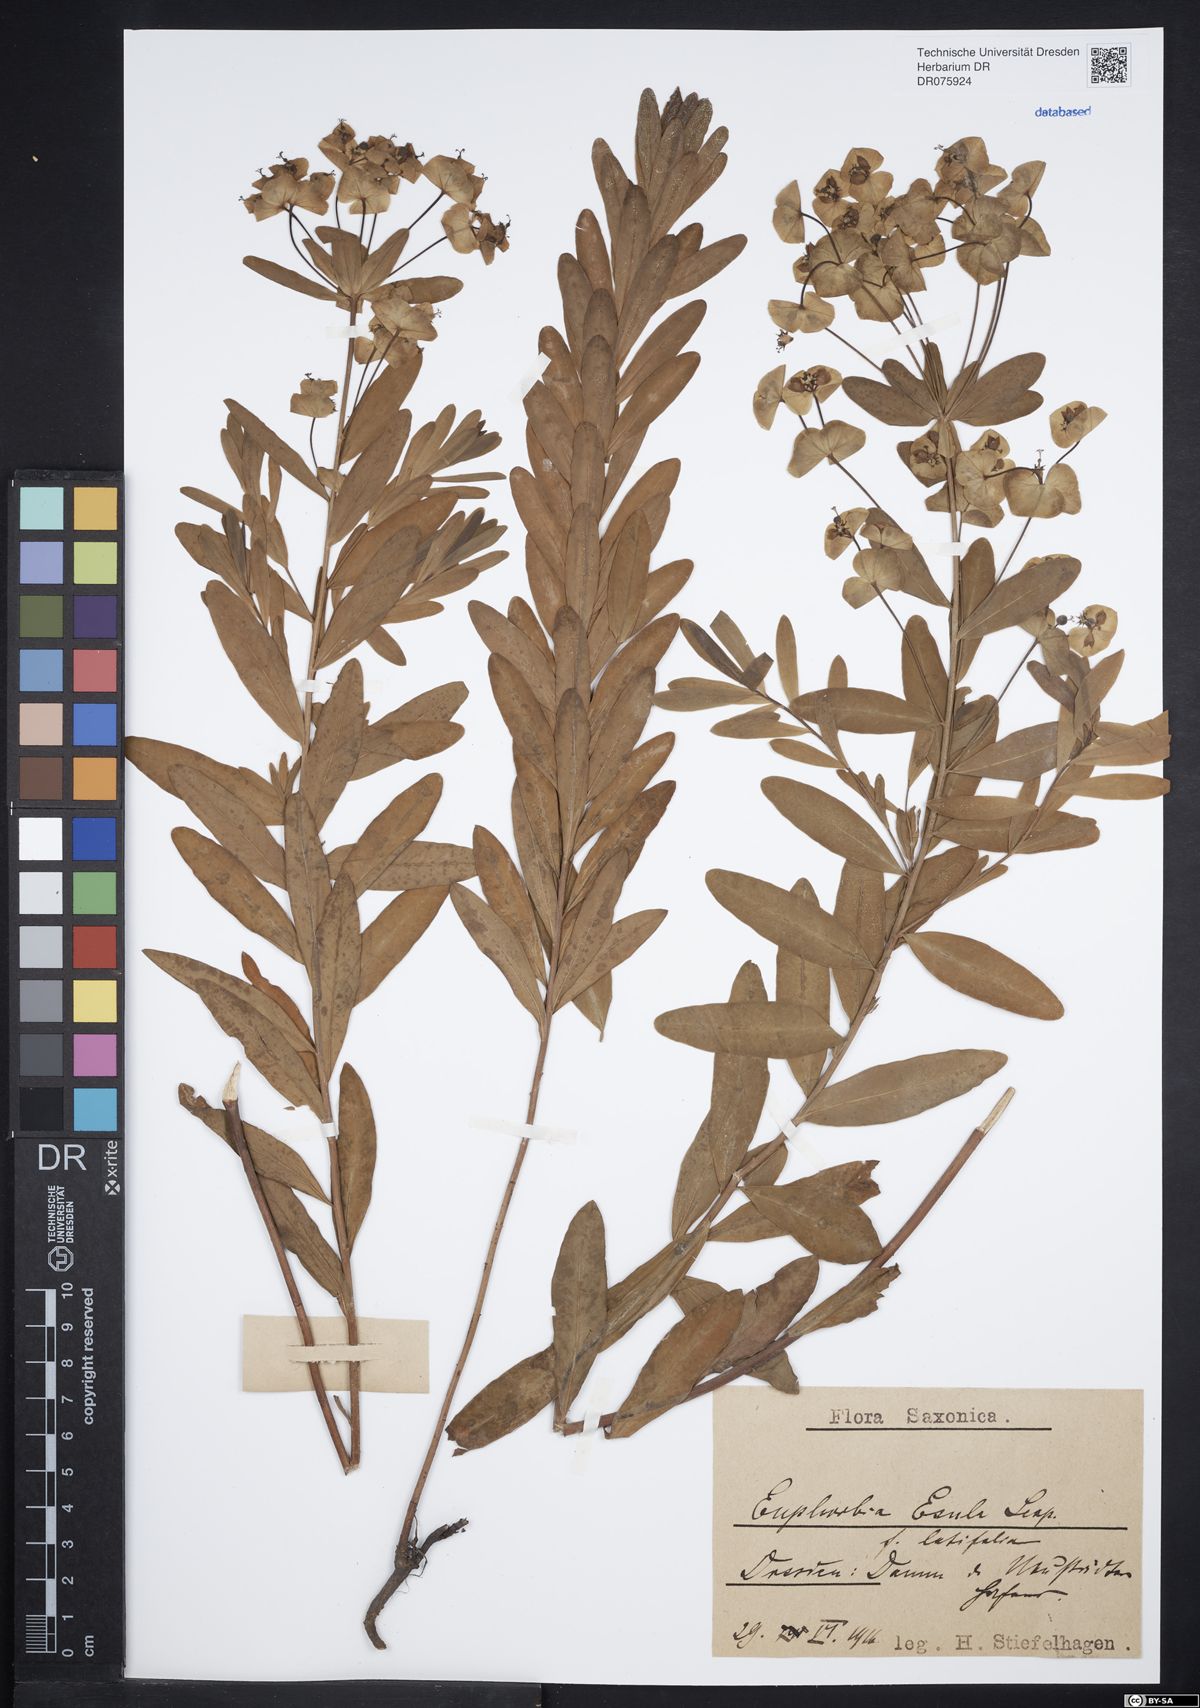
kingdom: Plantae
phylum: Tracheophyta
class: Magnoliopsida
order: Malpighiales
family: Euphorbiaceae
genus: Euphorbia
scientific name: Euphorbia esula
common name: Leafy spurge
